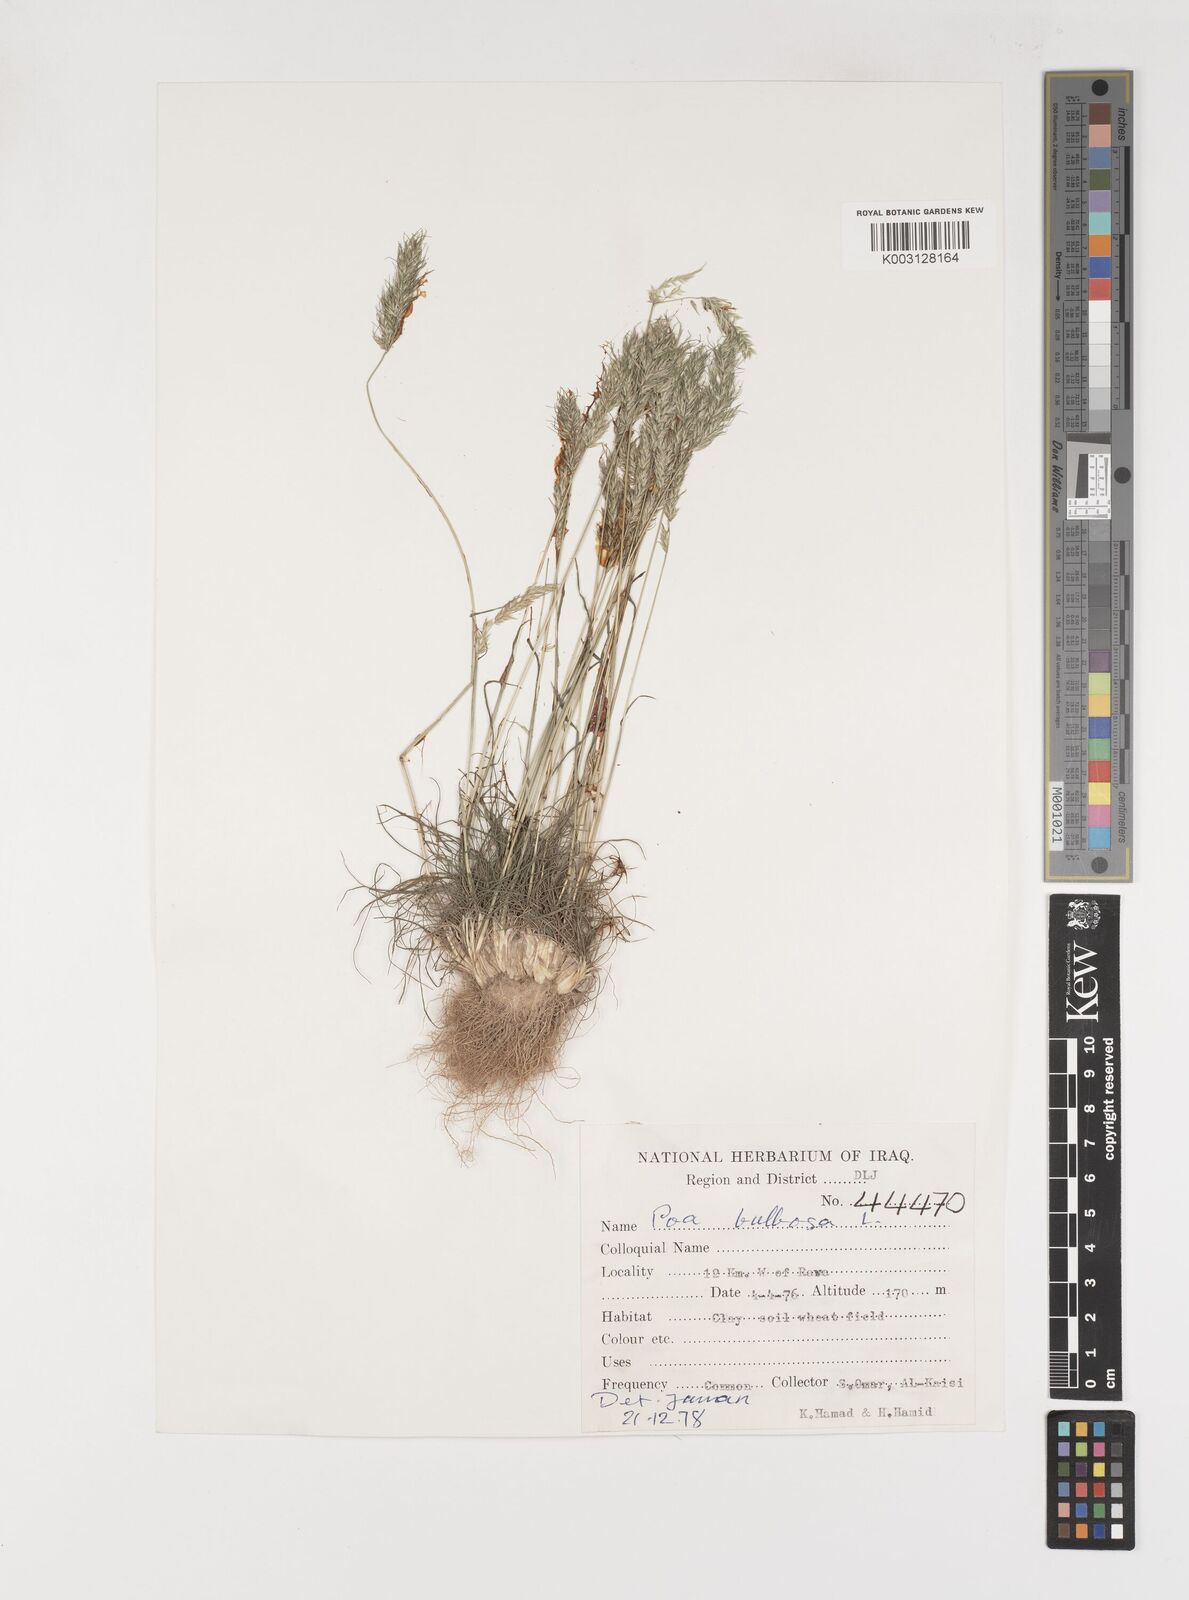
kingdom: Plantae
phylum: Tracheophyta
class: Liliopsida
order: Poales
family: Poaceae
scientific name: Poaceae
